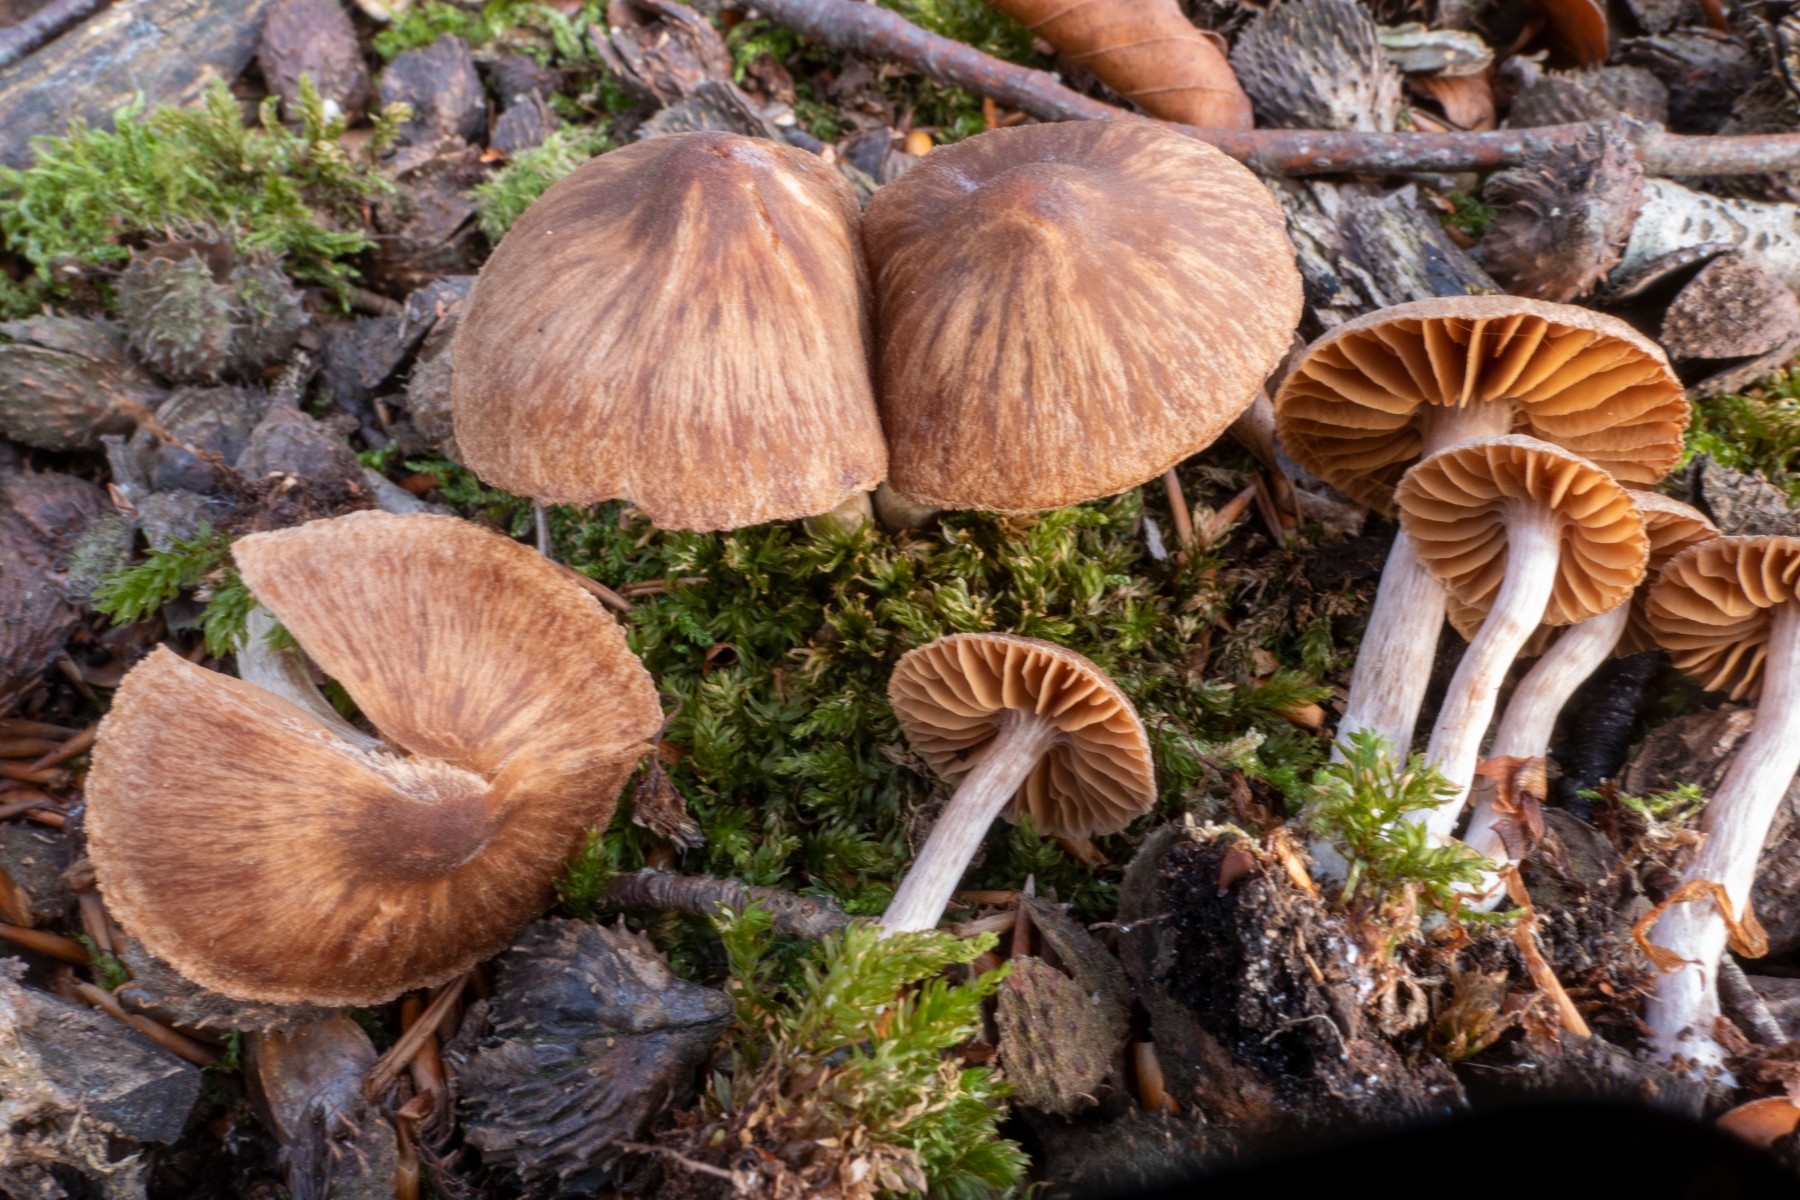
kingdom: Fungi
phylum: Basidiomycota
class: Agaricomycetes
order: Agaricales
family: Cortinariaceae
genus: Cortinarius
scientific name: Cortinarius hirtus
